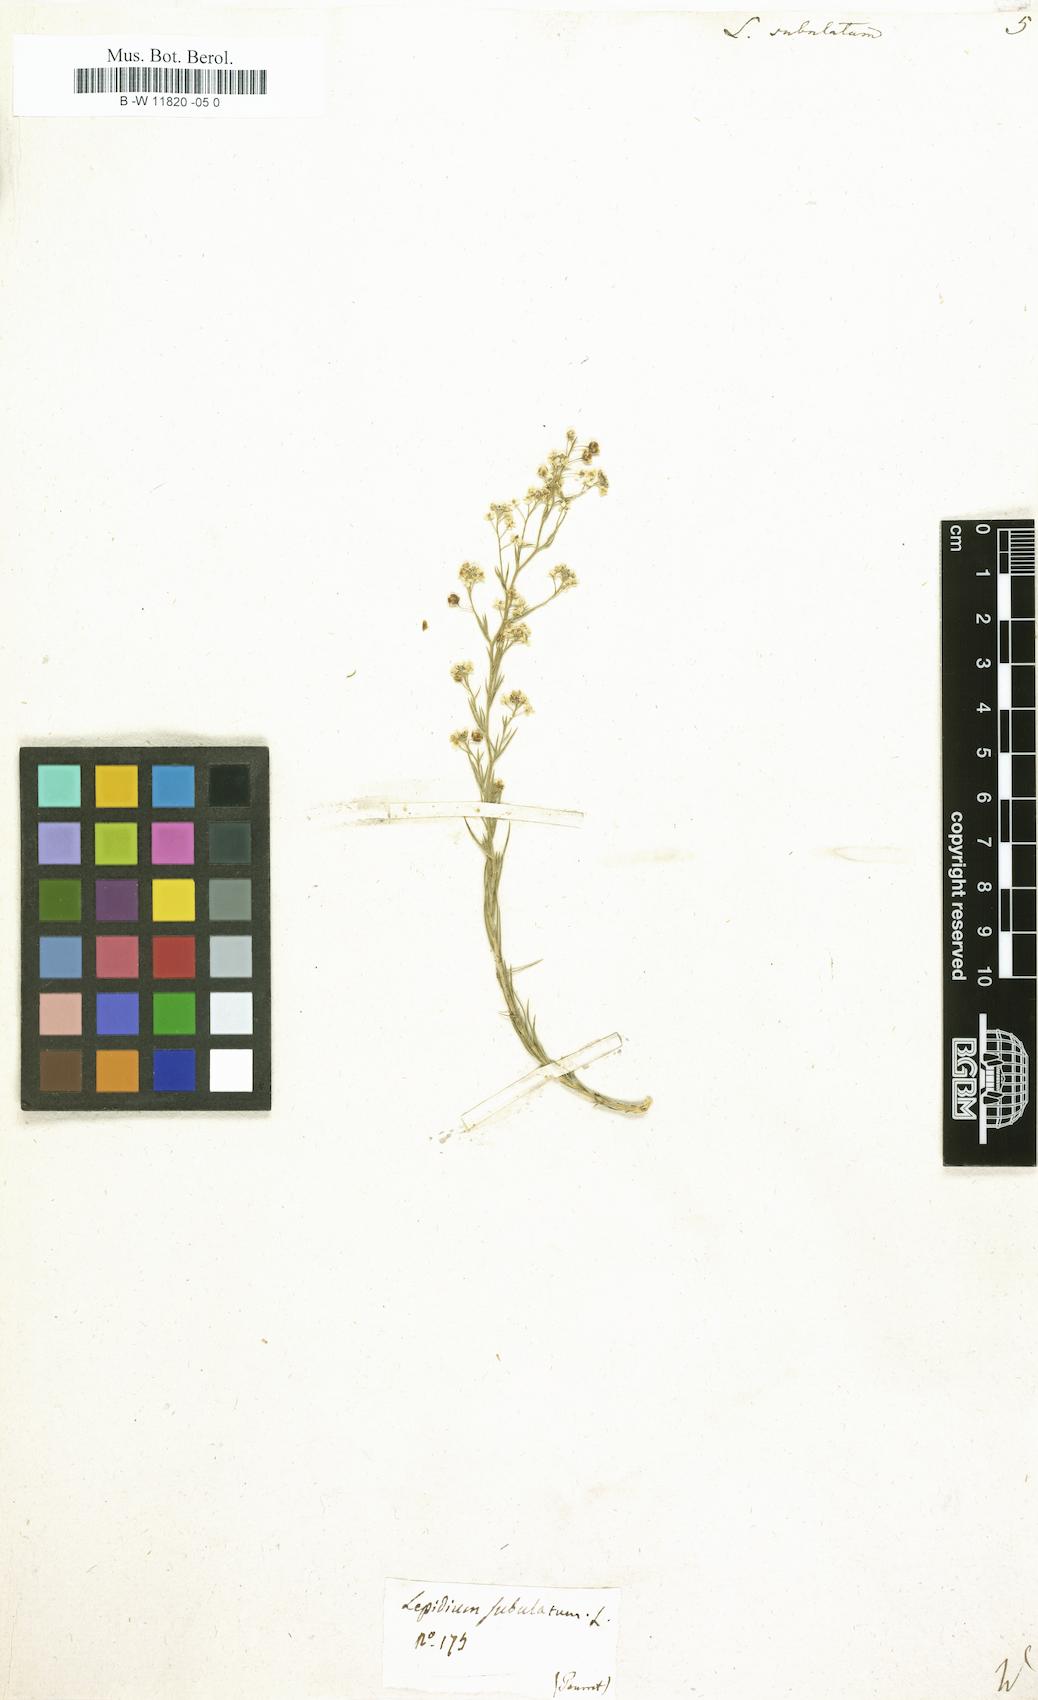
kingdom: Plantae
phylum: Tracheophyta
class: Magnoliopsida
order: Brassicales
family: Brassicaceae
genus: Lepidium
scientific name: Lepidium subulatum
